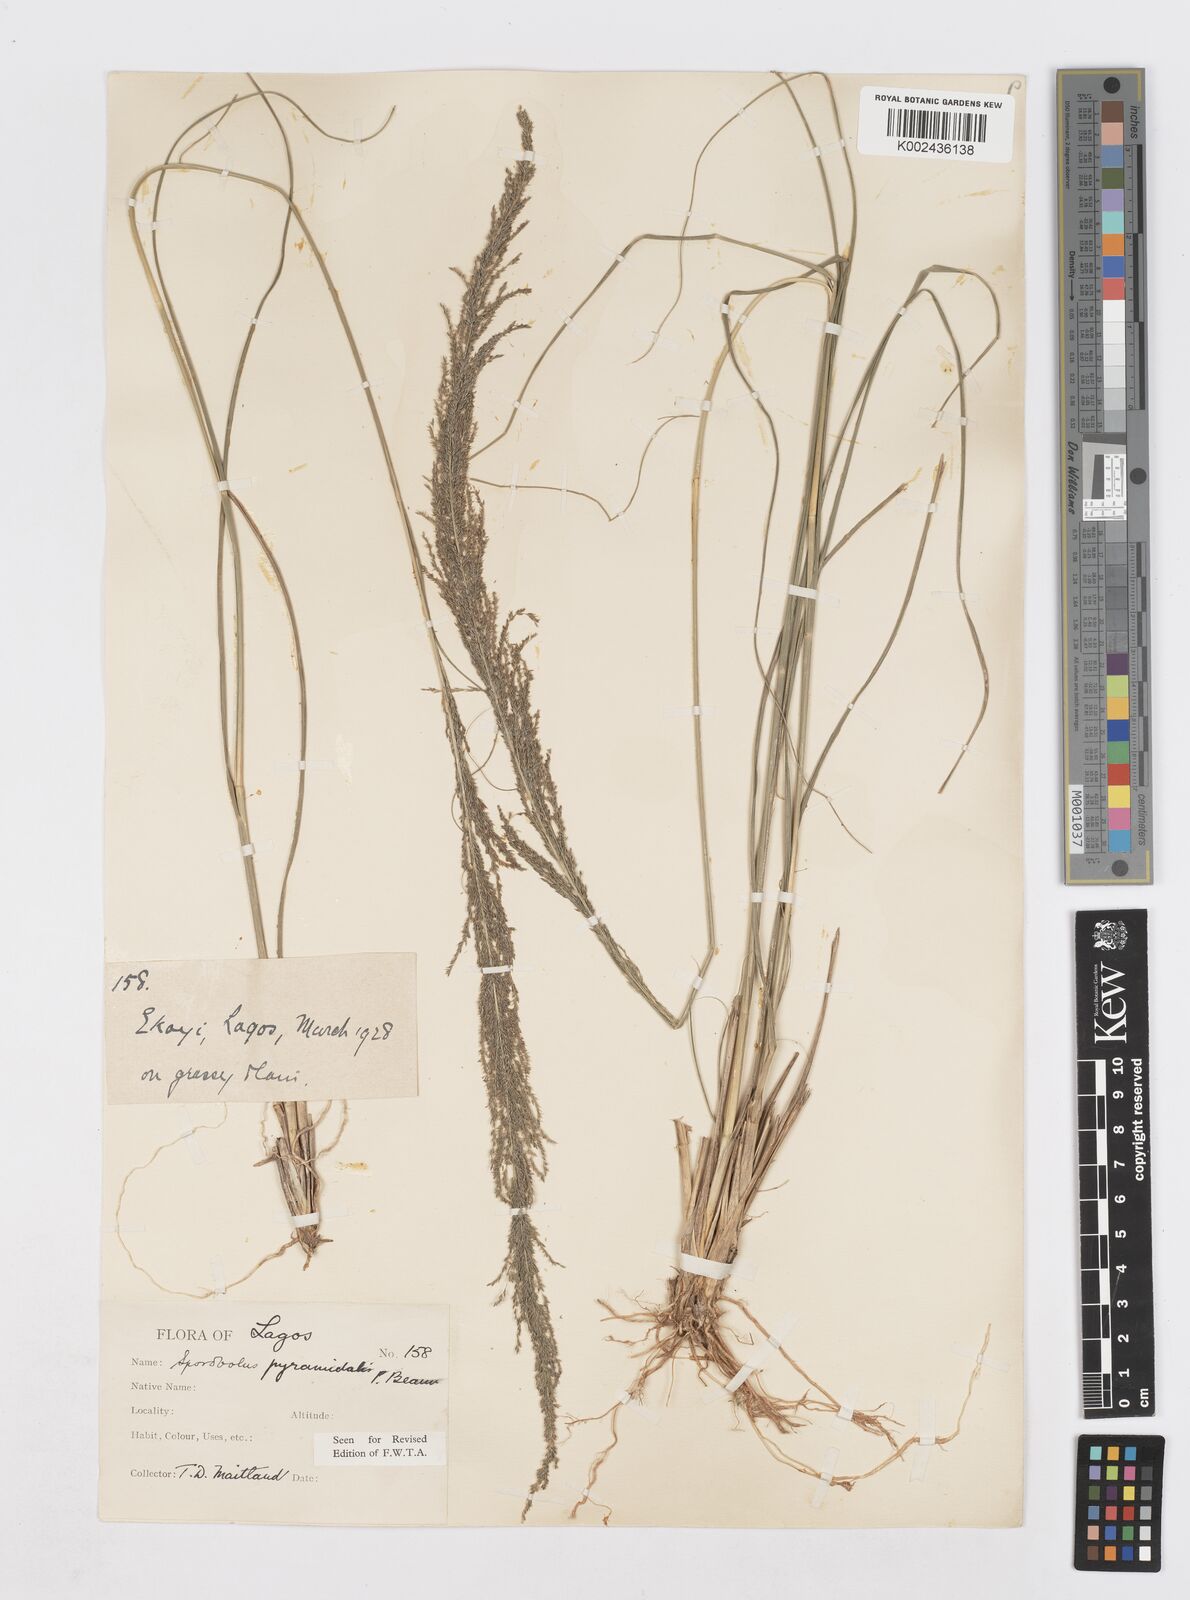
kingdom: Plantae
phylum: Tracheophyta
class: Liliopsida
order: Poales
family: Poaceae
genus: Sporobolus
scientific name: Sporobolus pyramidalis
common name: West indian dropseed
